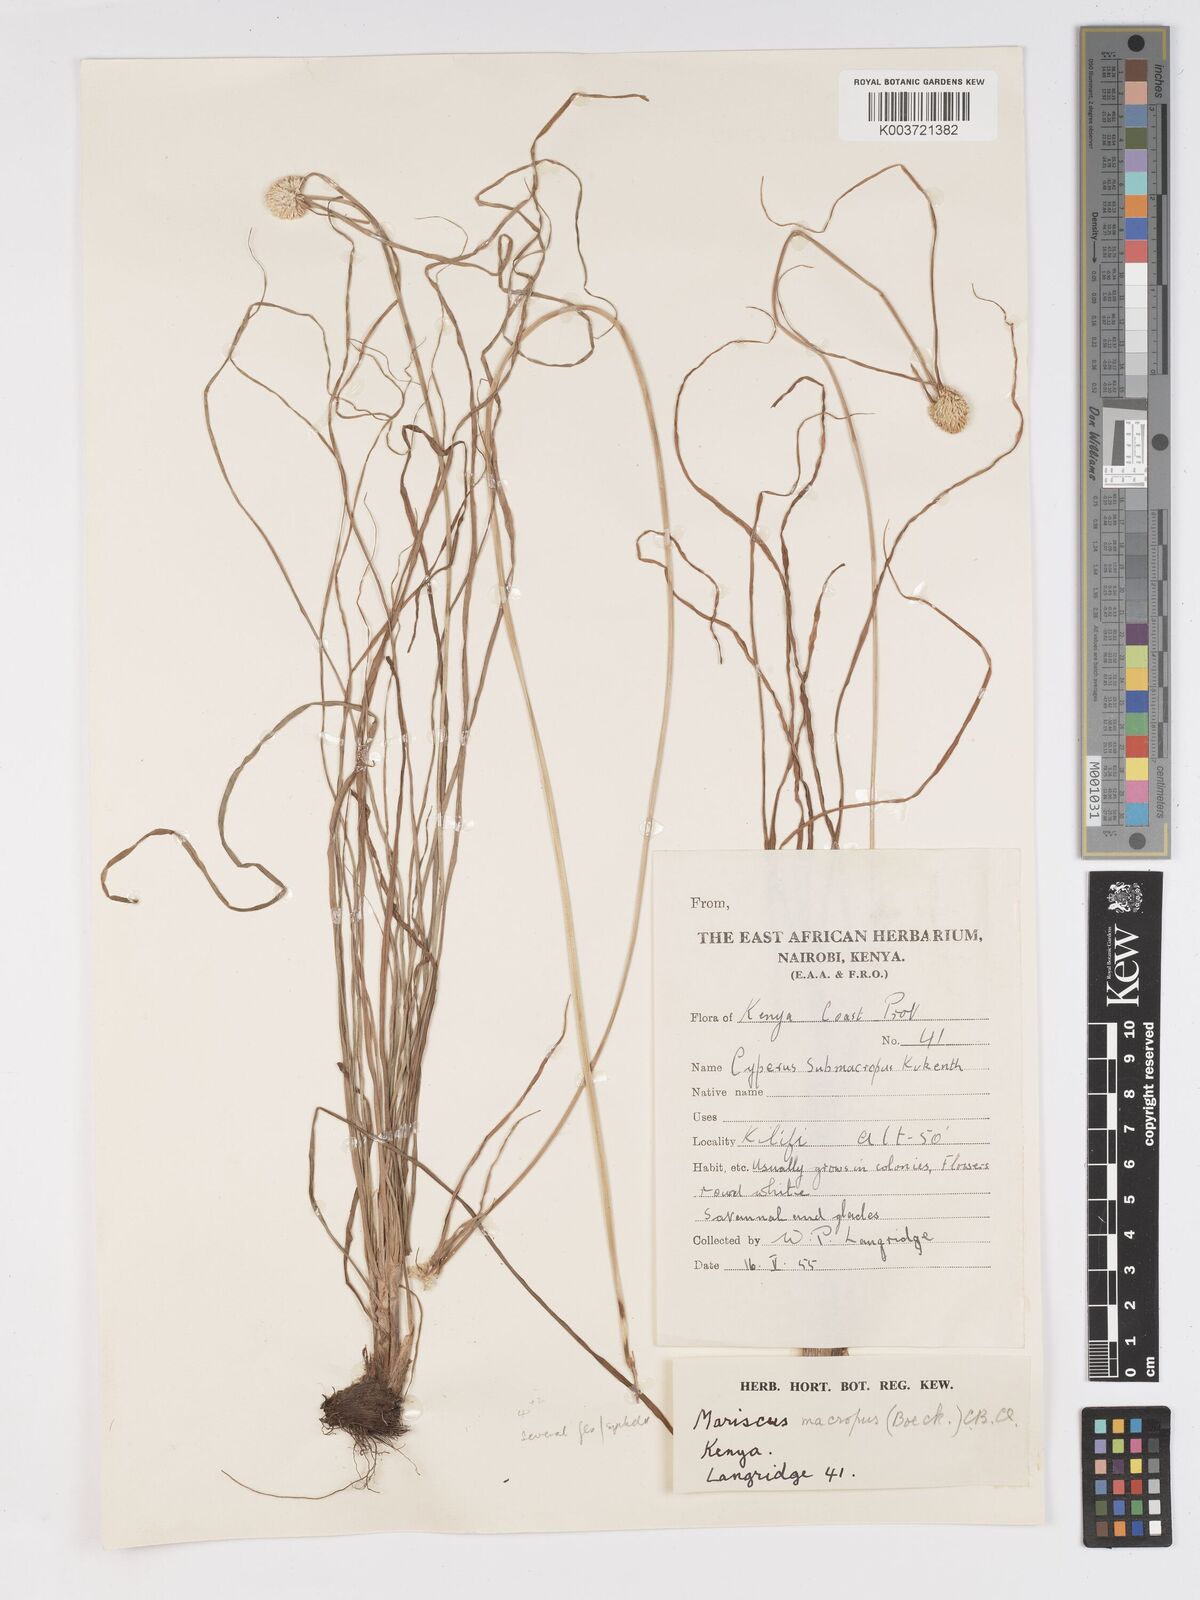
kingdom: Plantae
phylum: Tracheophyta
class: Liliopsida
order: Poales
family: Cyperaceae
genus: Cyperus
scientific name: Cyperus mollipes
